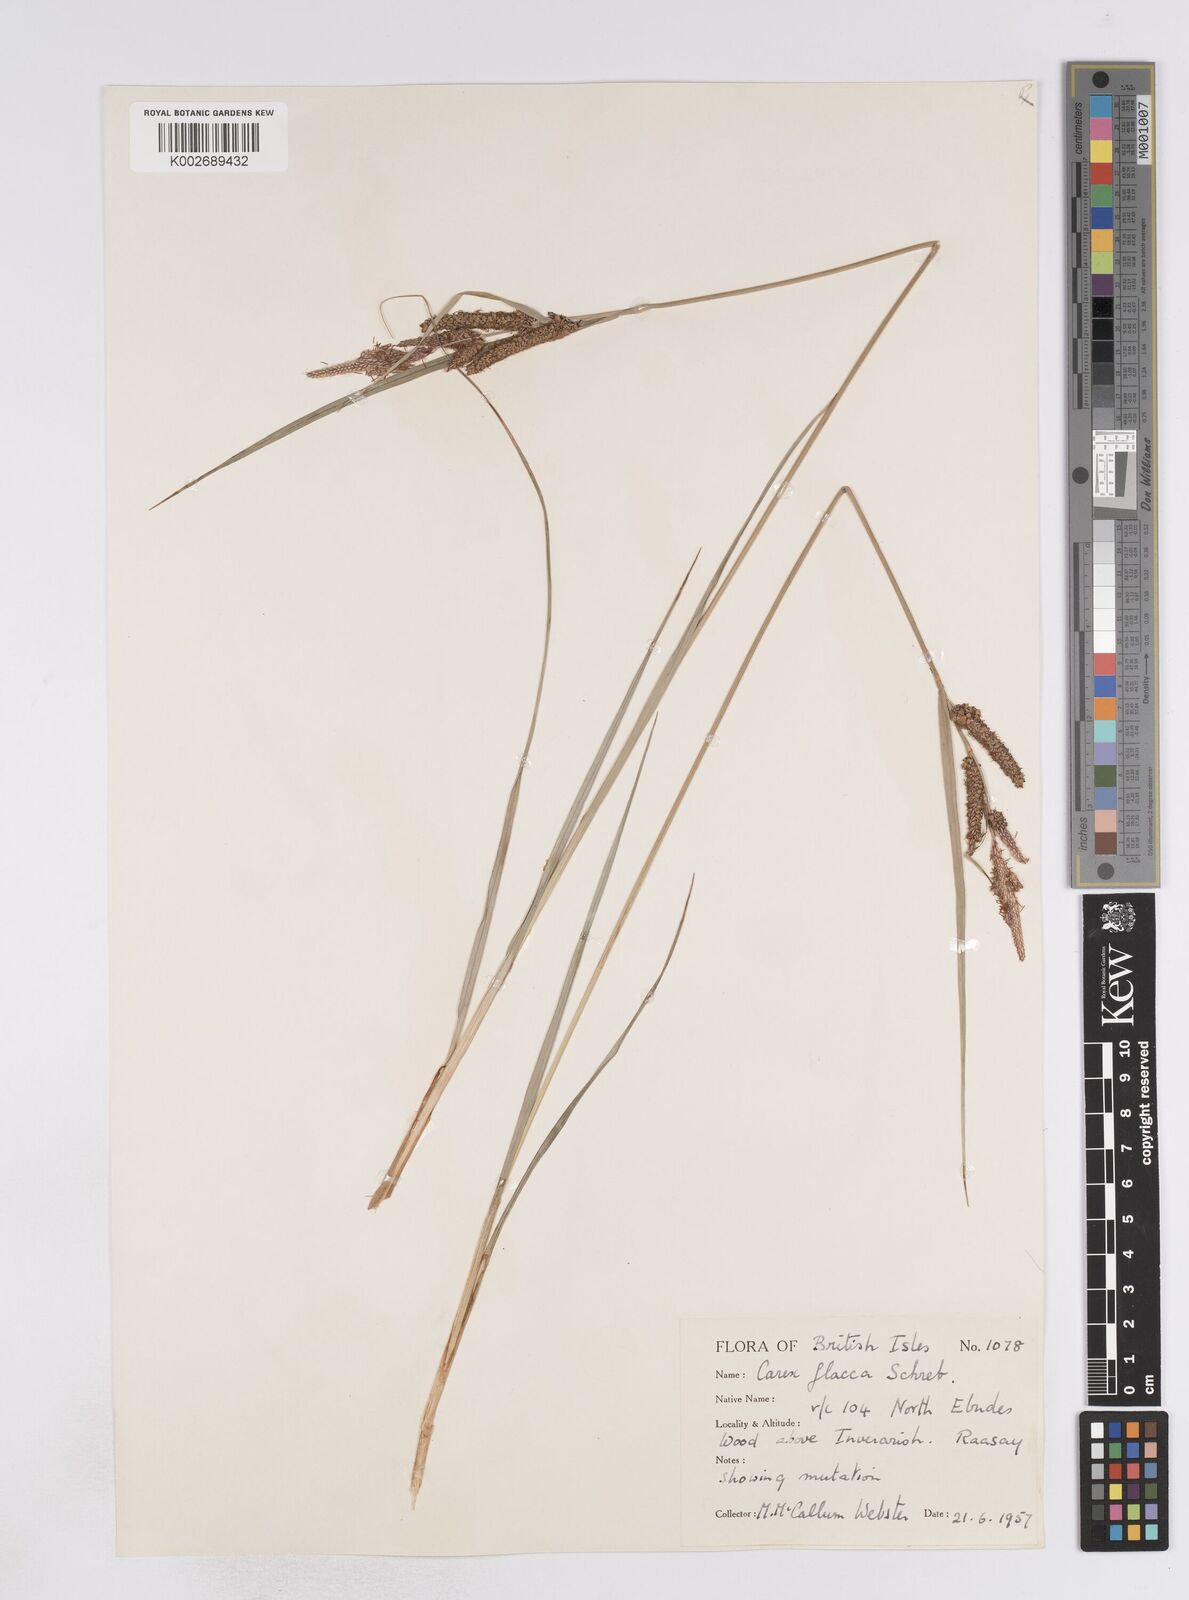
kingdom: Plantae
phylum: Tracheophyta
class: Liliopsida
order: Poales
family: Cyperaceae
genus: Carex
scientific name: Carex flacca
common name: Glaucous sedge
